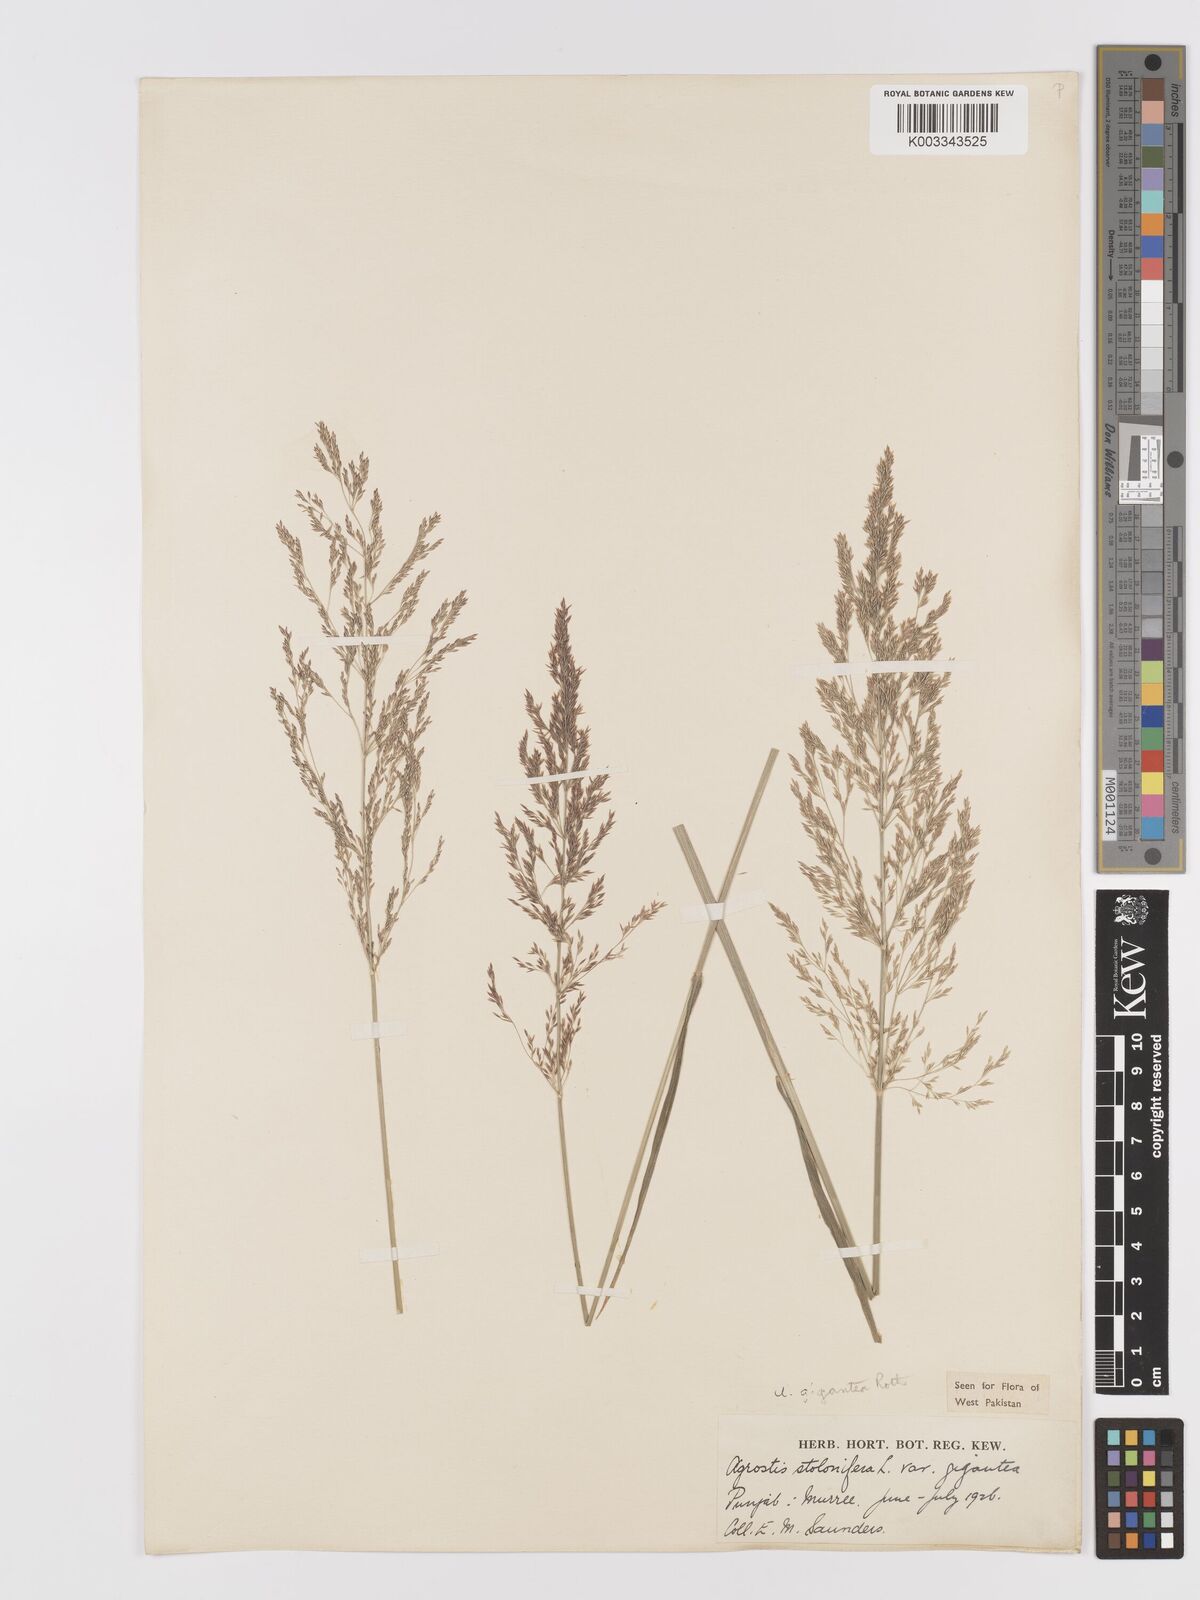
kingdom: Plantae
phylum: Tracheophyta
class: Liliopsida
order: Poales
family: Poaceae
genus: Agrostis
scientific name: Agrostis gigantea
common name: Black bent
